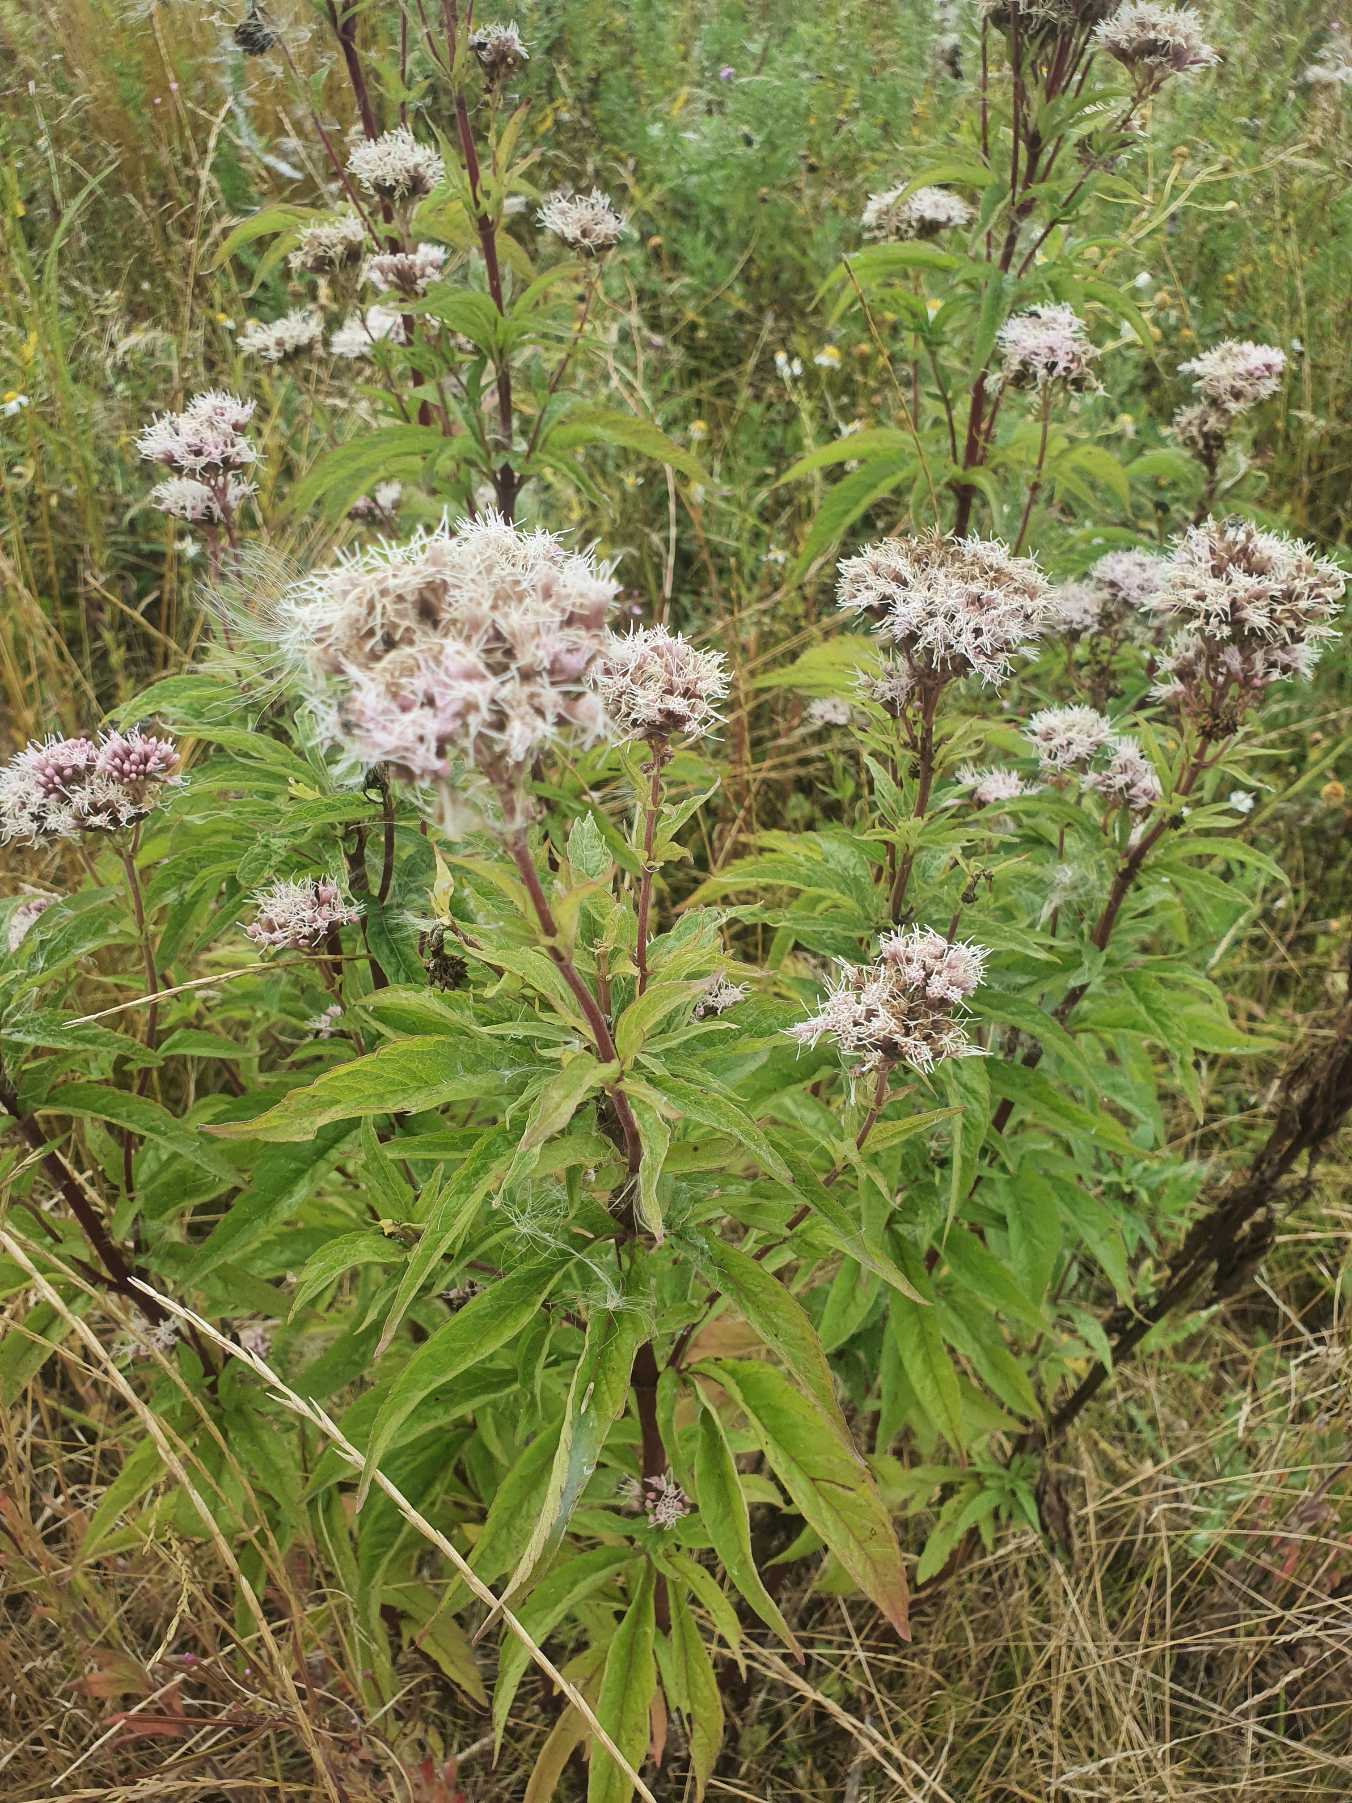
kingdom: Plantae
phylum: Tracheophyta
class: Magnoliopsida
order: Asterales
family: Asteraceae
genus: Eupatorium
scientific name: Eupatorium cannabinum
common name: Hjortetrøst
